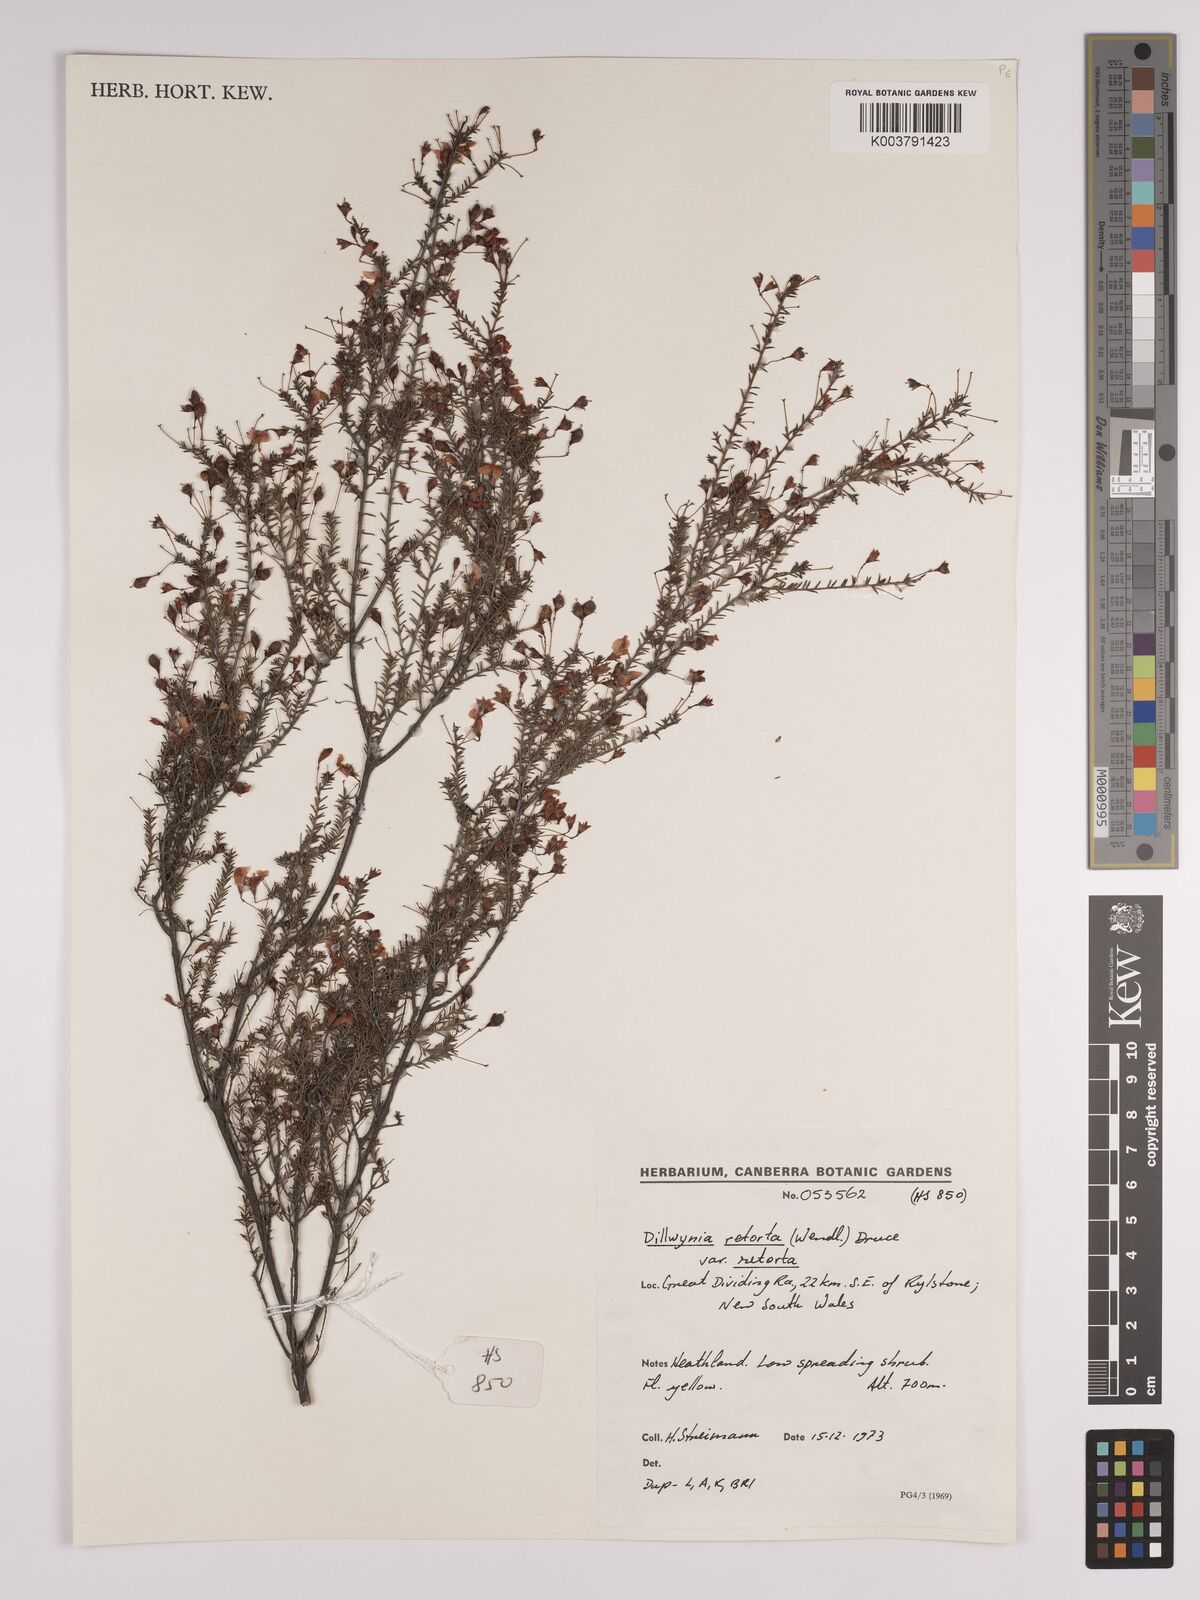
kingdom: Plantae
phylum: Tracheophyta
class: Magnoliopsida
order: Fabales
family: Fabaceae
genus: Dillwynia
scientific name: Dillwynia retorta
